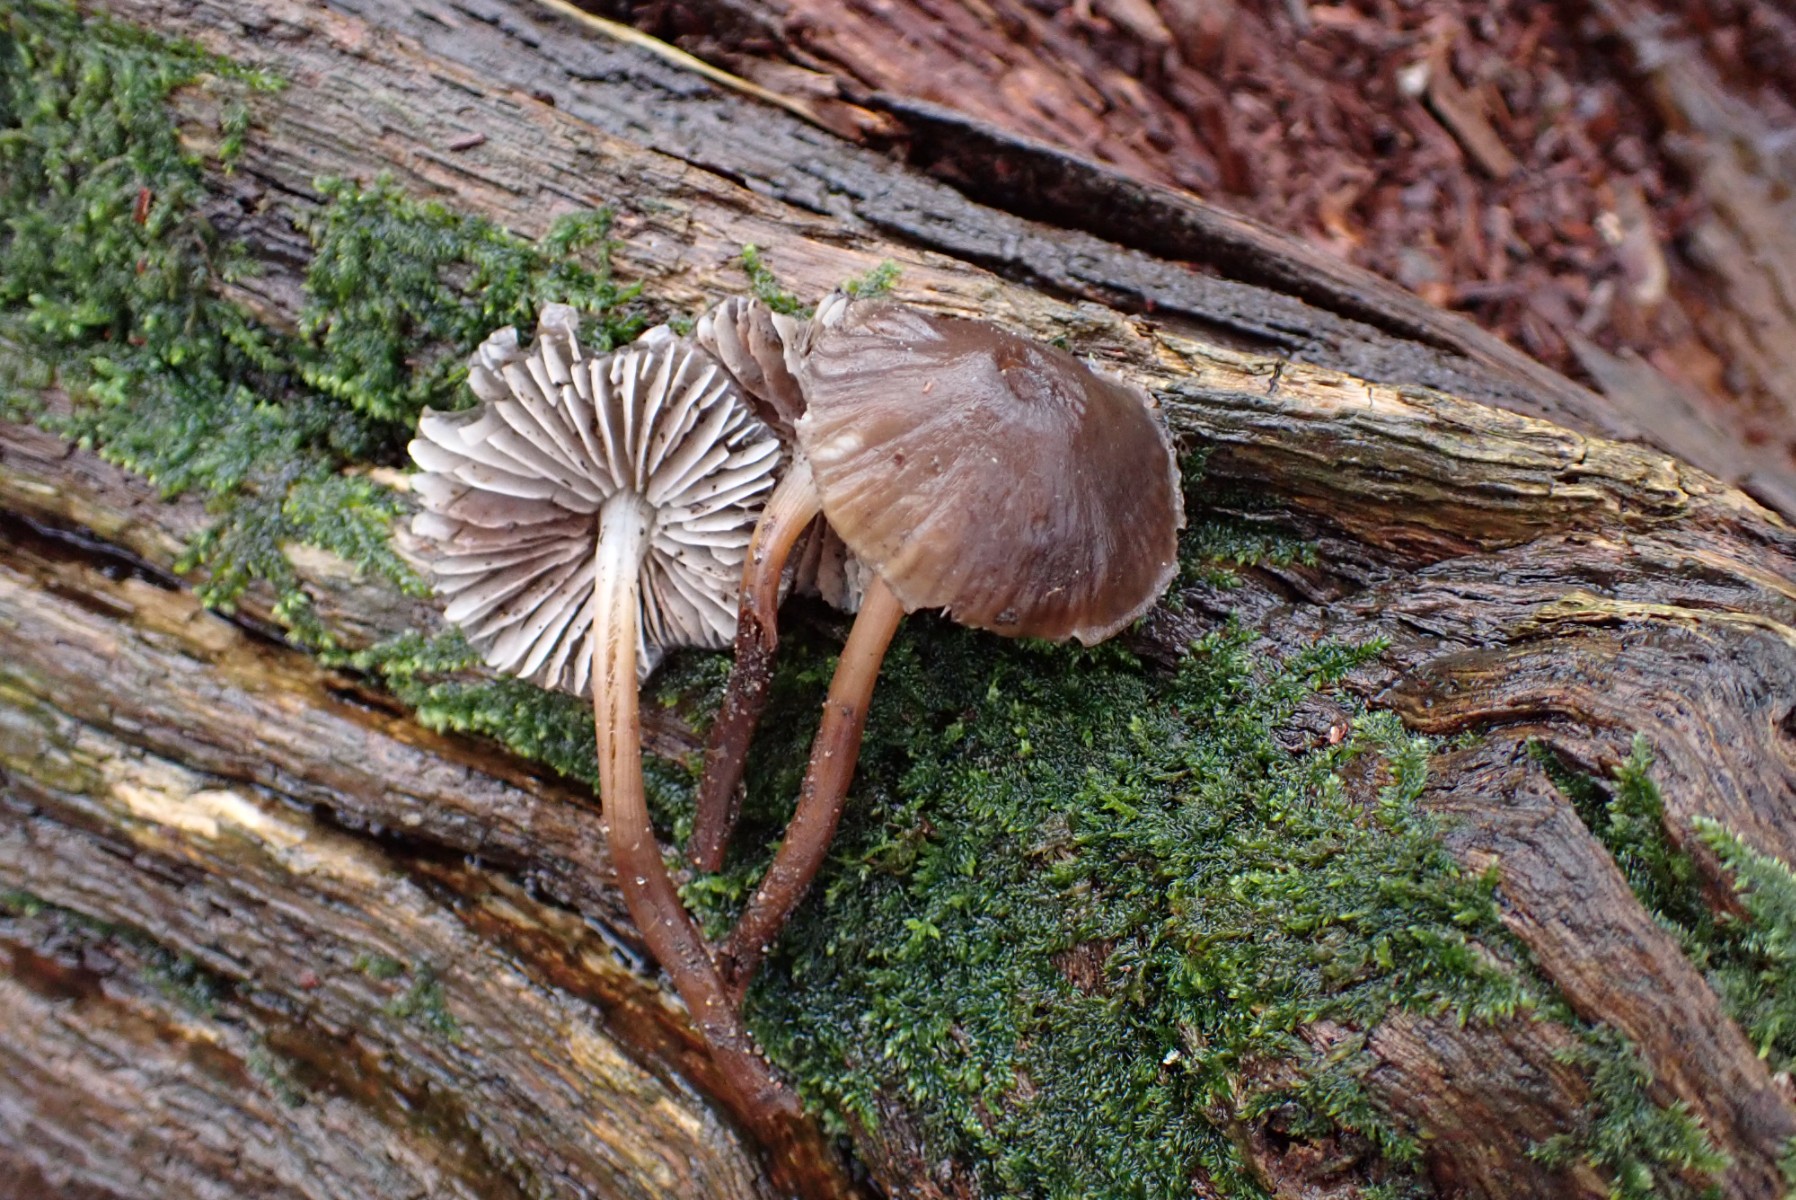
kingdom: Fungi
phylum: Basidiomycota
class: Agaricomycetes
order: Agaricales
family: Mycenaceae
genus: Mycena
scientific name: Mycena inclinata
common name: nikkende huesvamp
